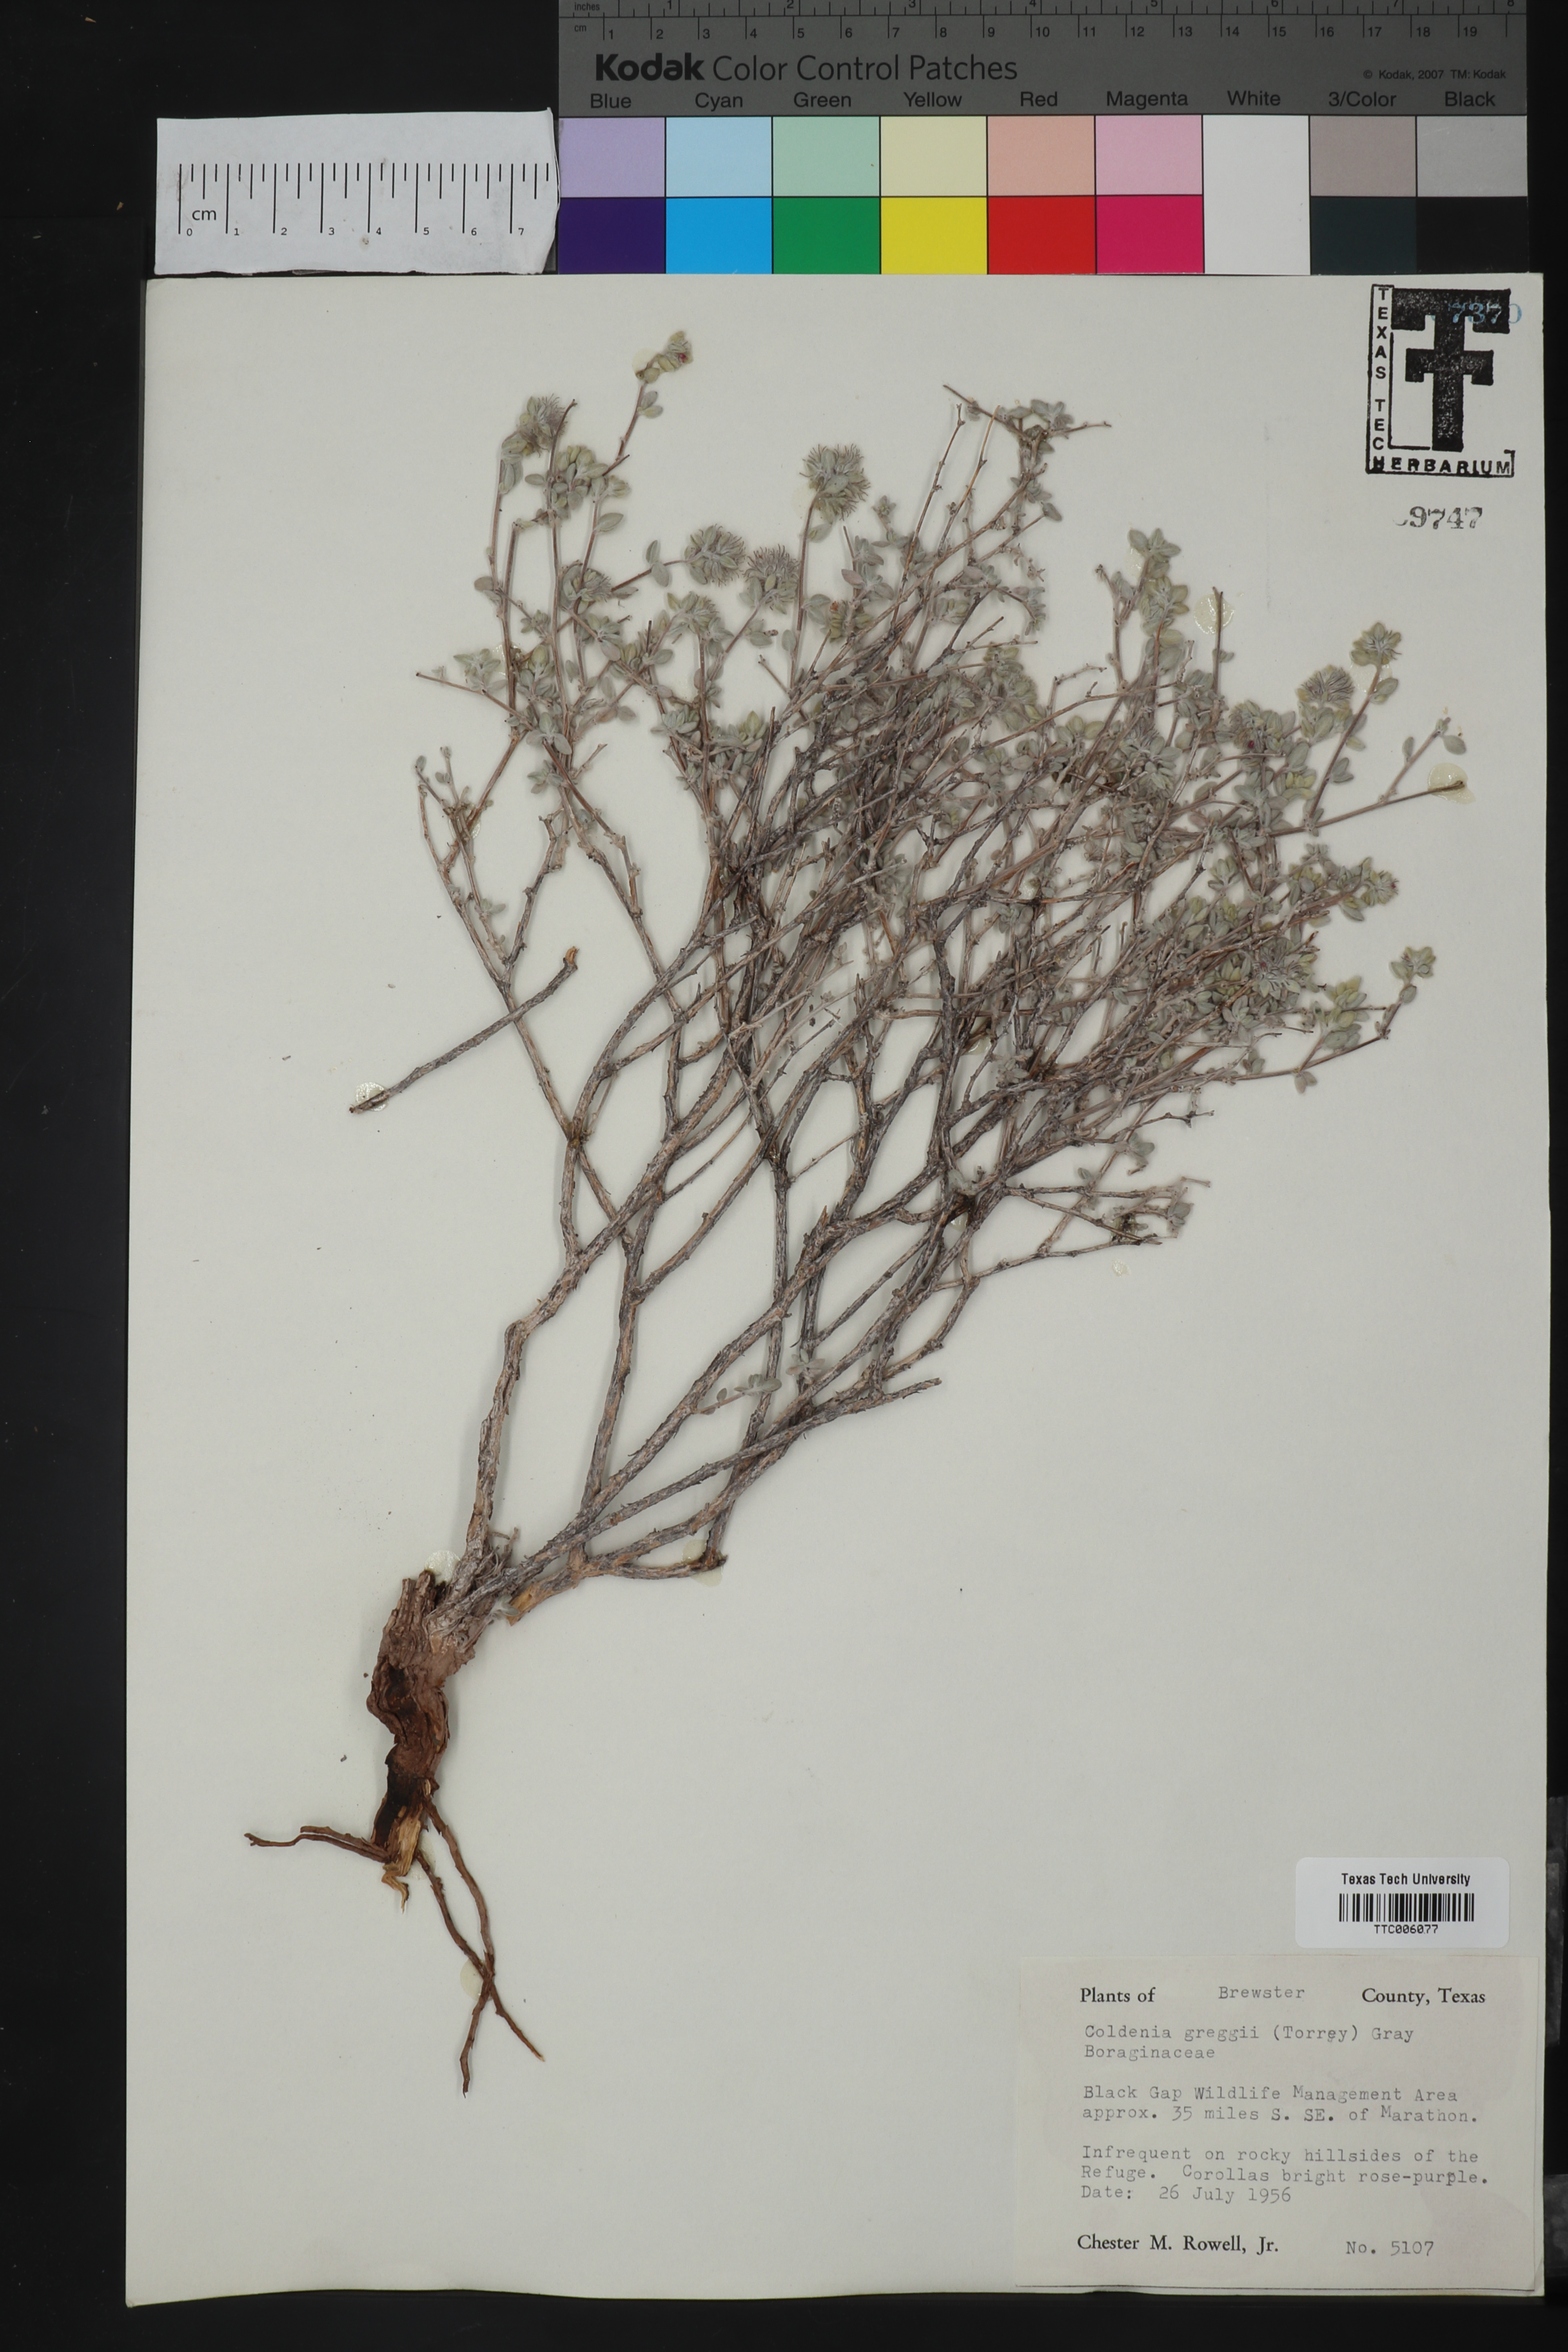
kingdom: Plantae
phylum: Tracheophyta
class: Magnoliopsida
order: Boraginales
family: Ehretiaceae
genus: Tiquilia
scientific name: Tiquilia greggii
